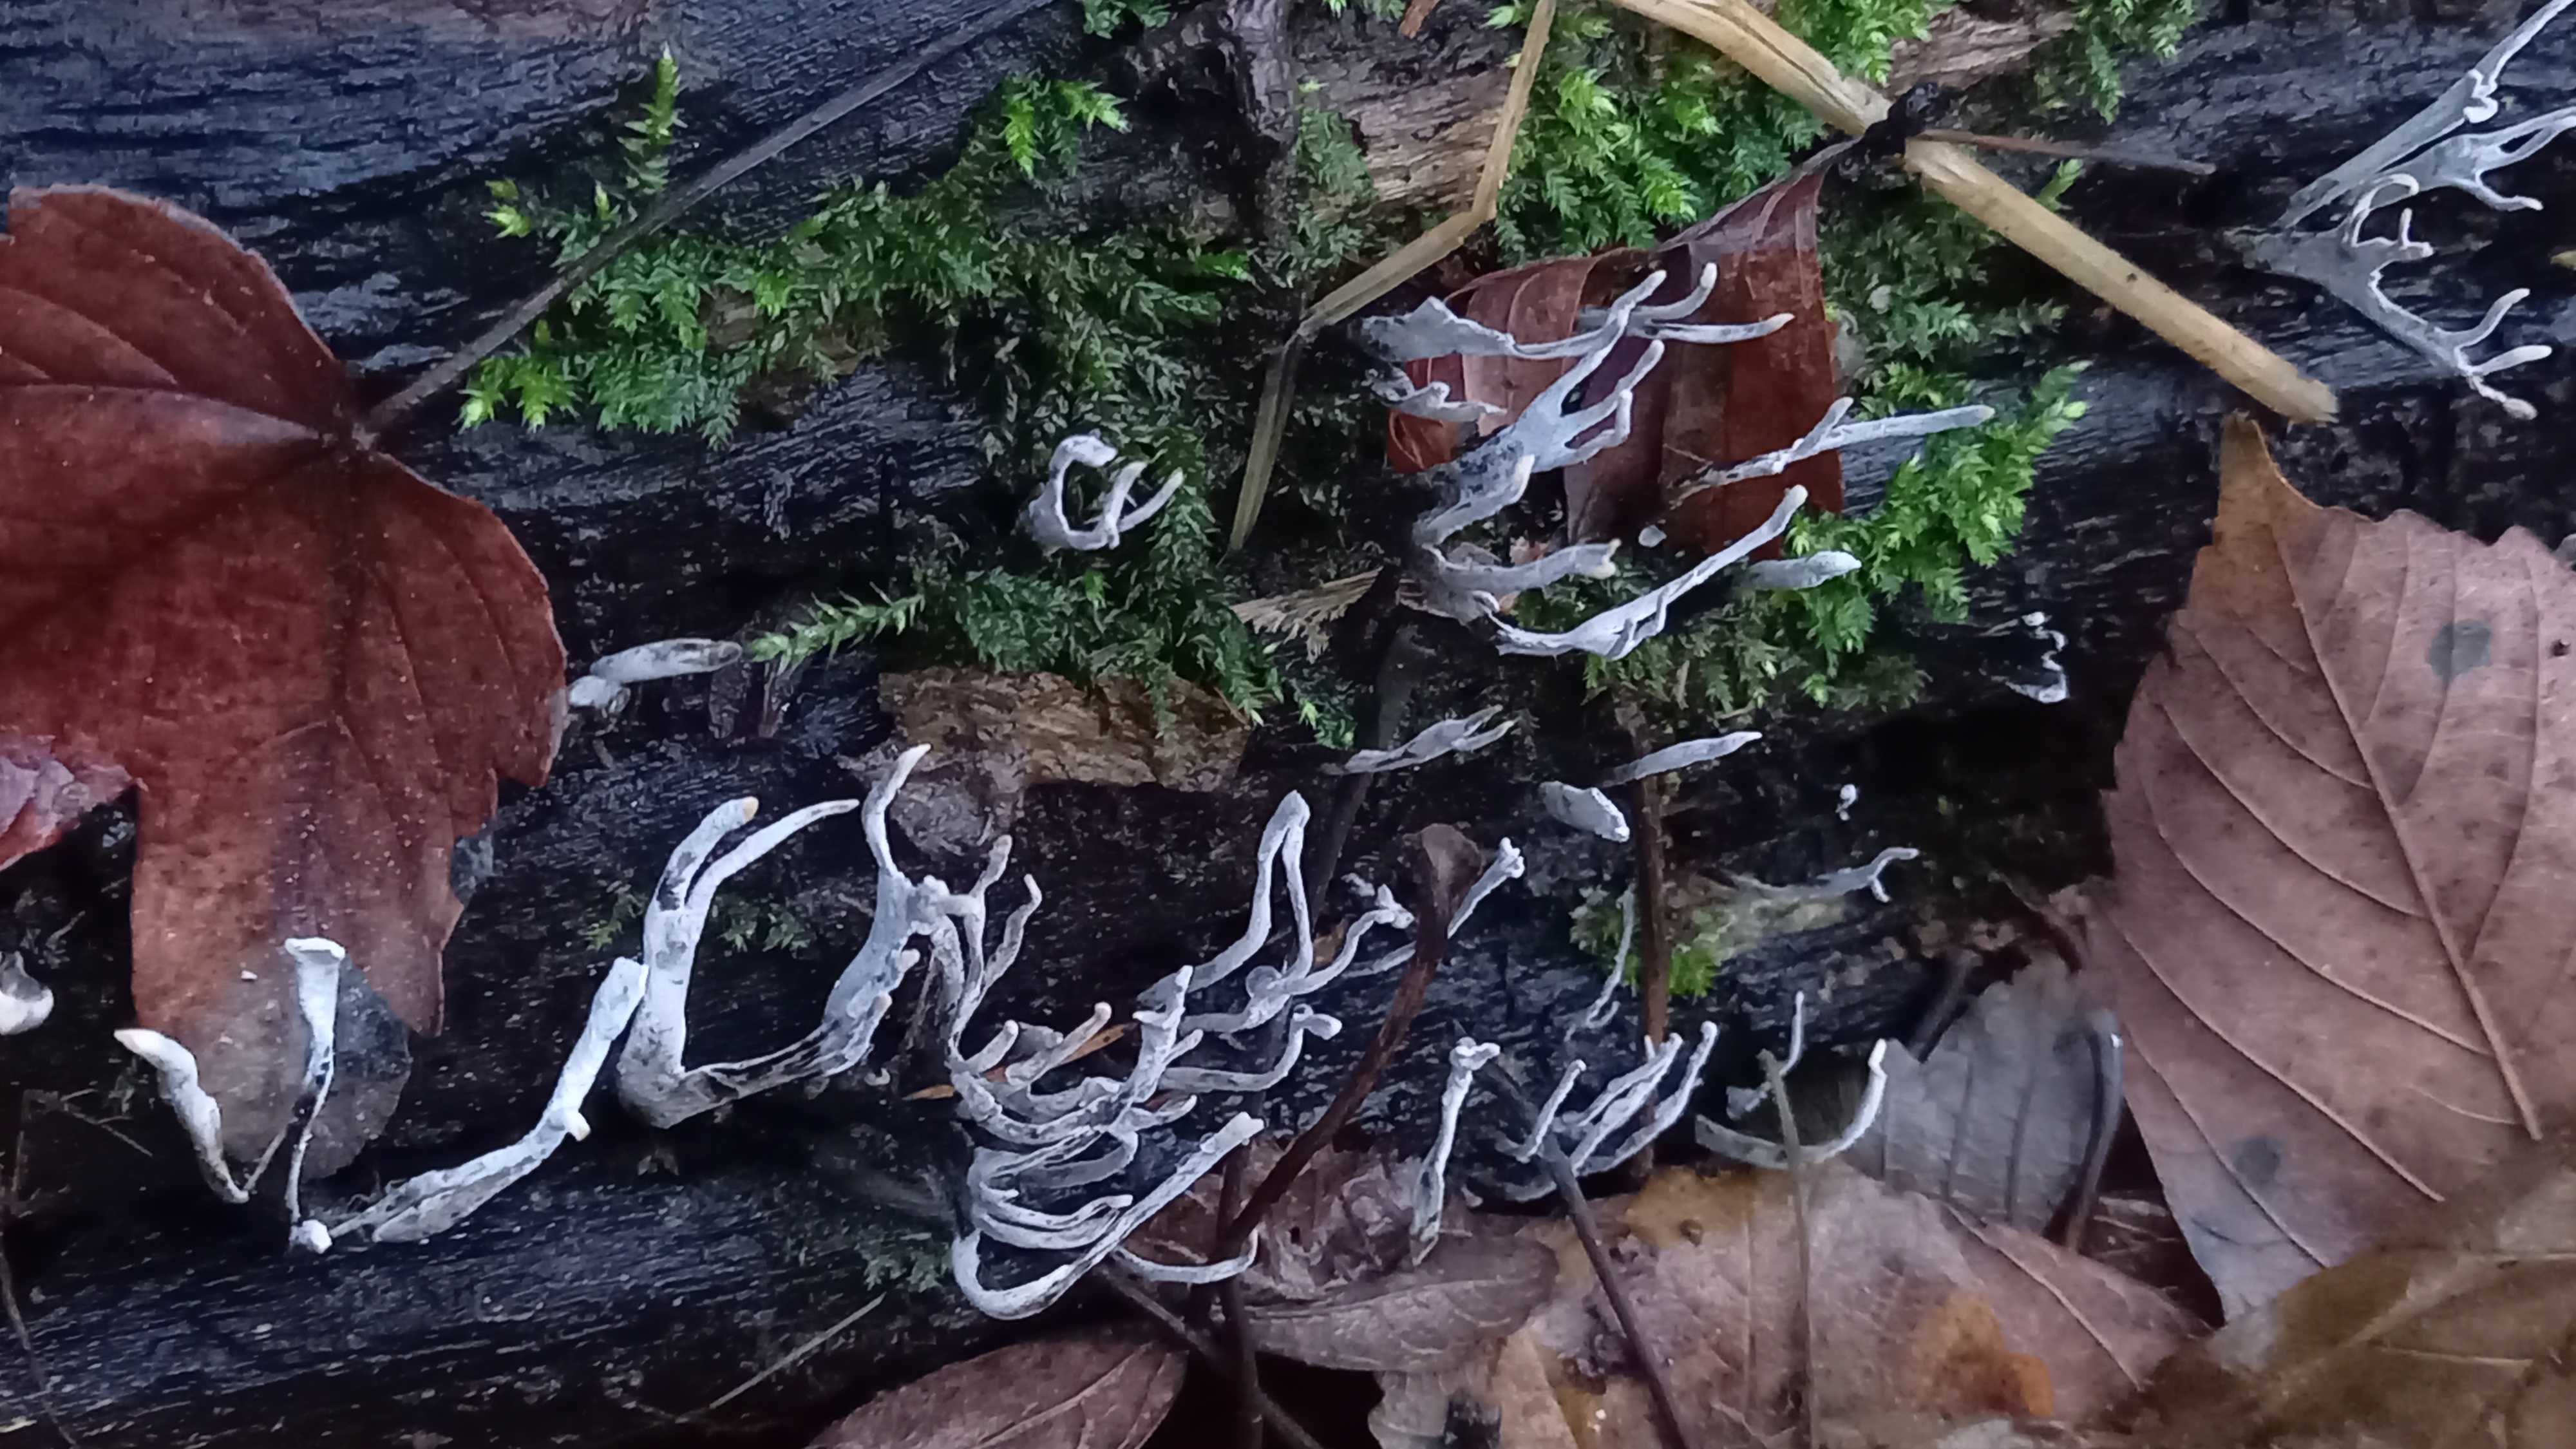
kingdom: Fungi
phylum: Ascomycota
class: Sordariomycetes
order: Xylariales
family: Xylariaceae
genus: Xylaria
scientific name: Xylaria hypoxylon
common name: grenet stødsvamp
